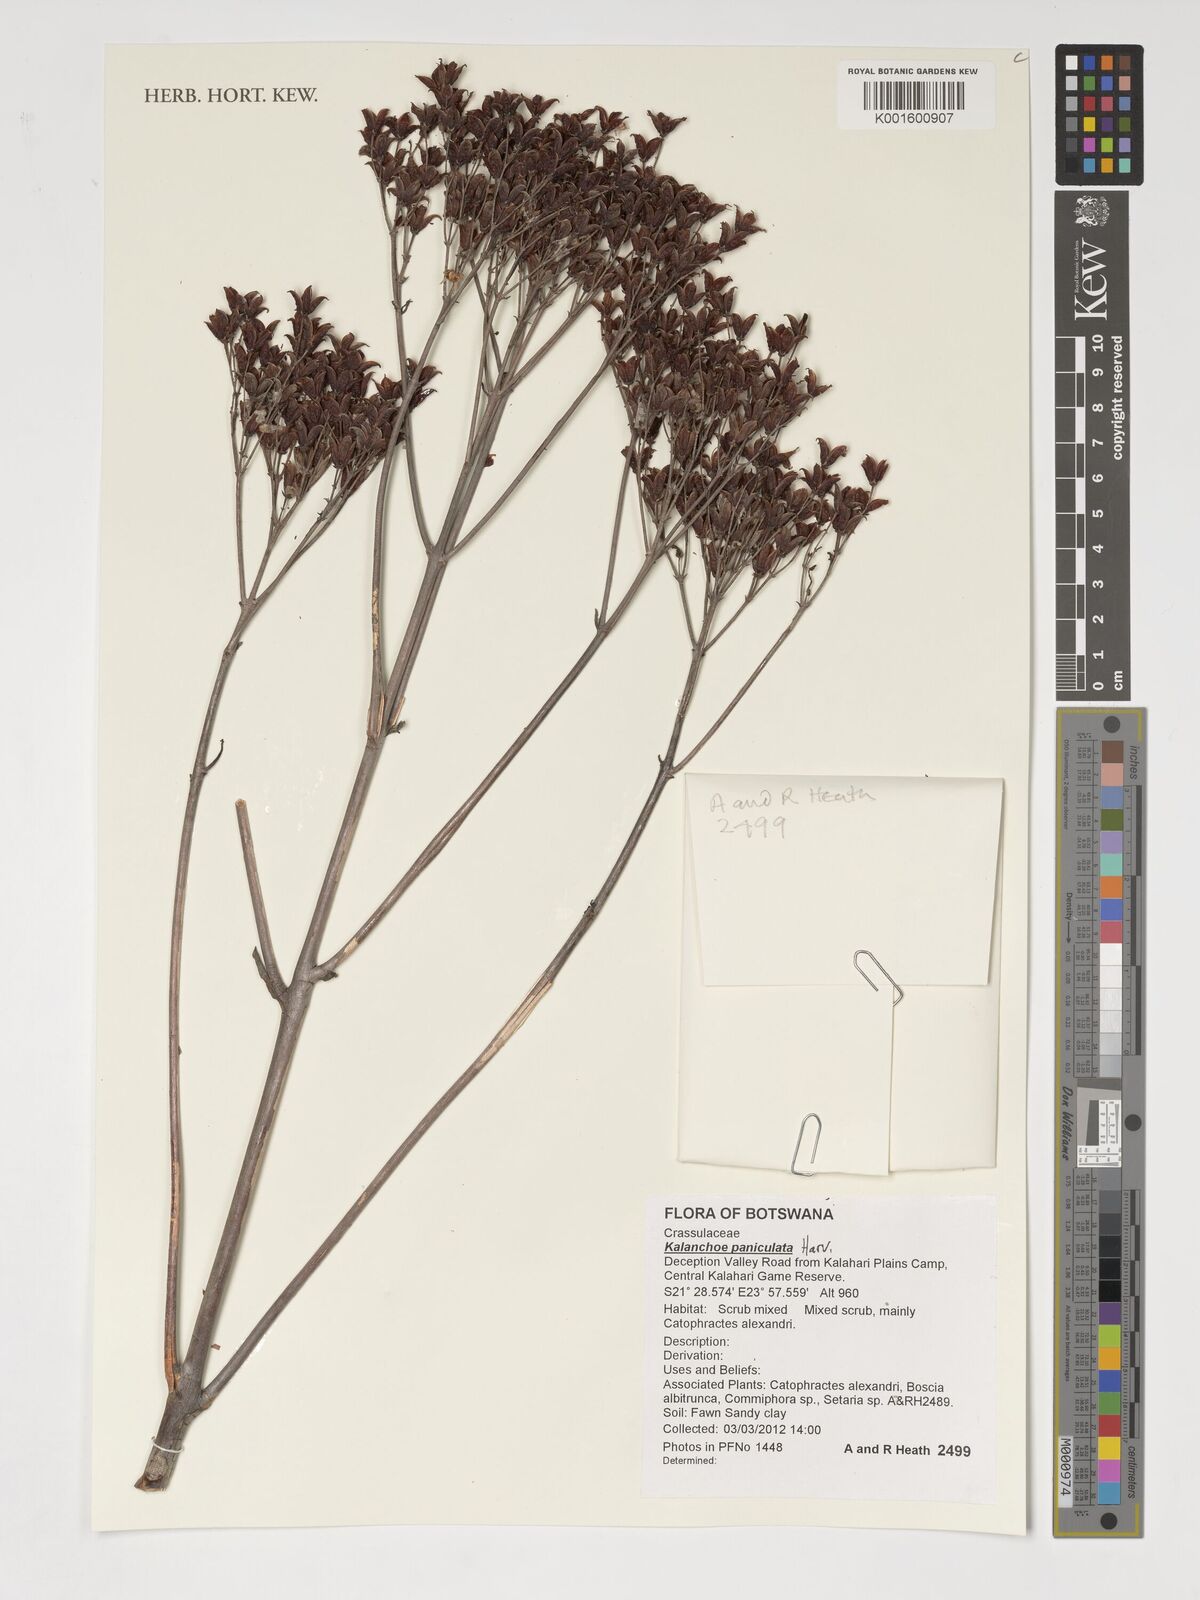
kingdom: Plantae
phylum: Tracheophyta
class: Magnoliopsida
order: Saxifragales
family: Crassulaceae
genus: Kalanchoe
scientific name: Kalanchoe paniculata
